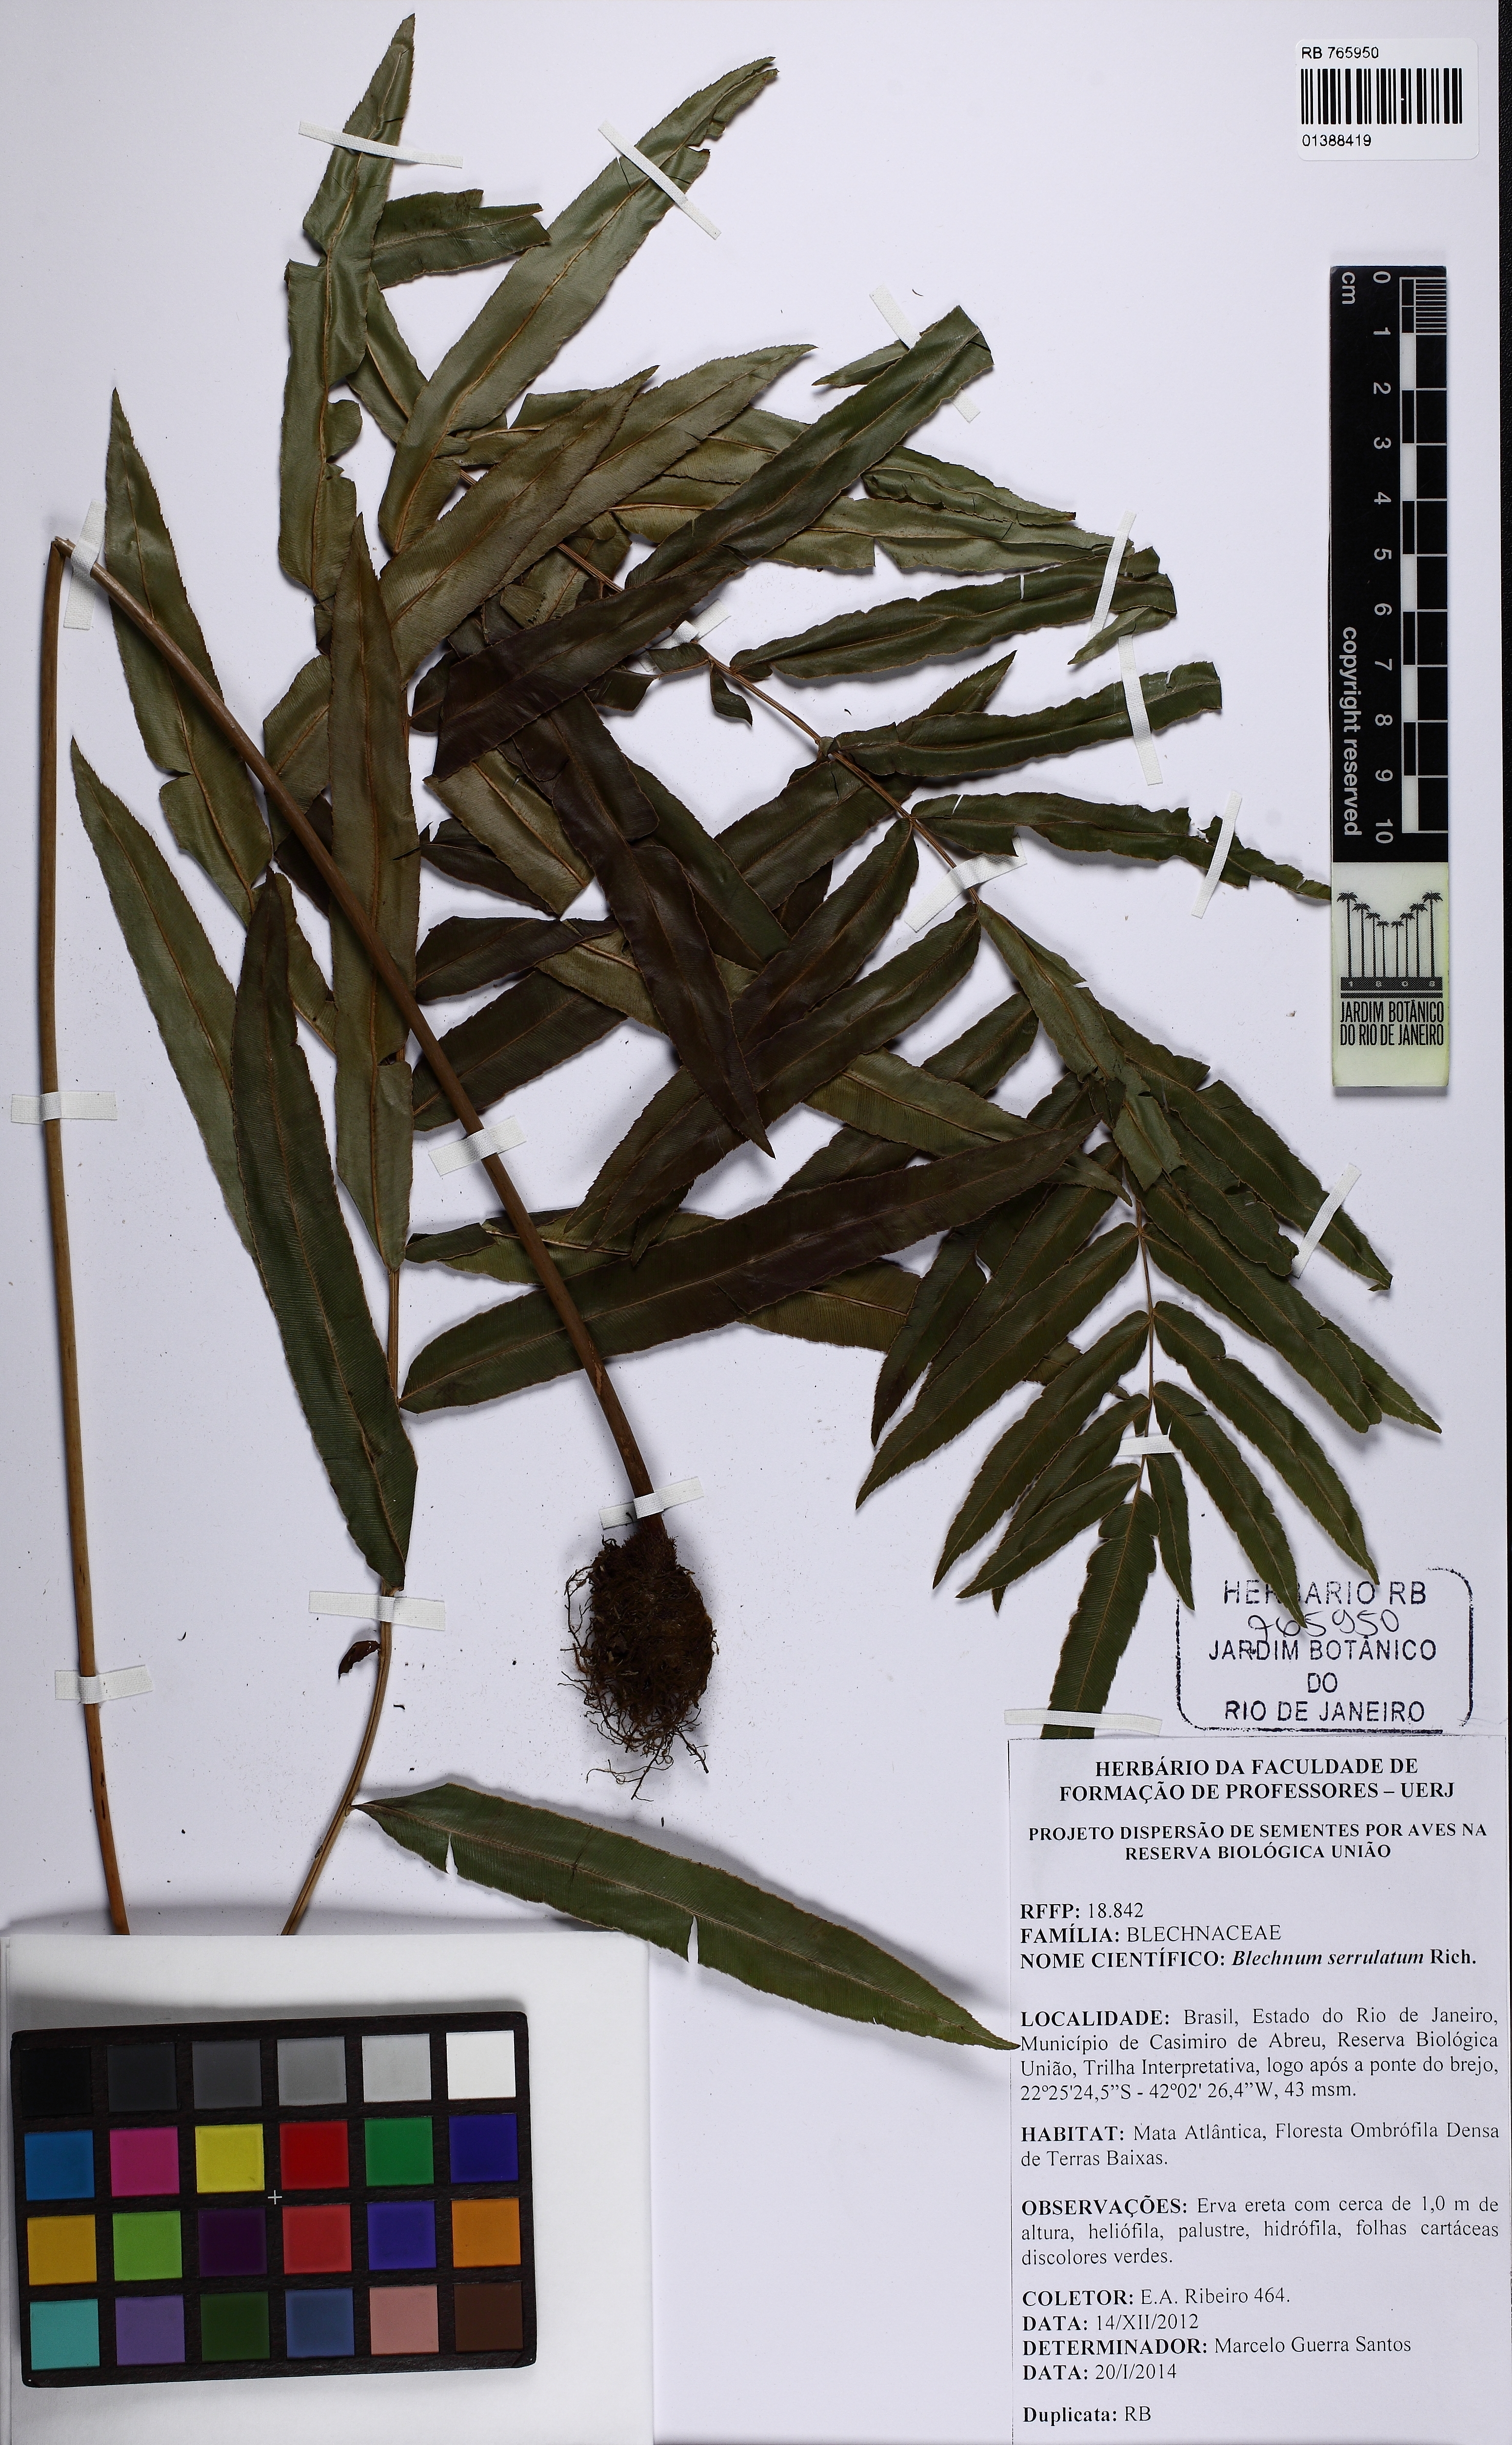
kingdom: Plantae
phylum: Tracheophyta
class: Polypodiopsida
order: Polypodiales
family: Blechnaceae
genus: Telmatoblechnum
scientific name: Telmatoblechnum serrulatum
